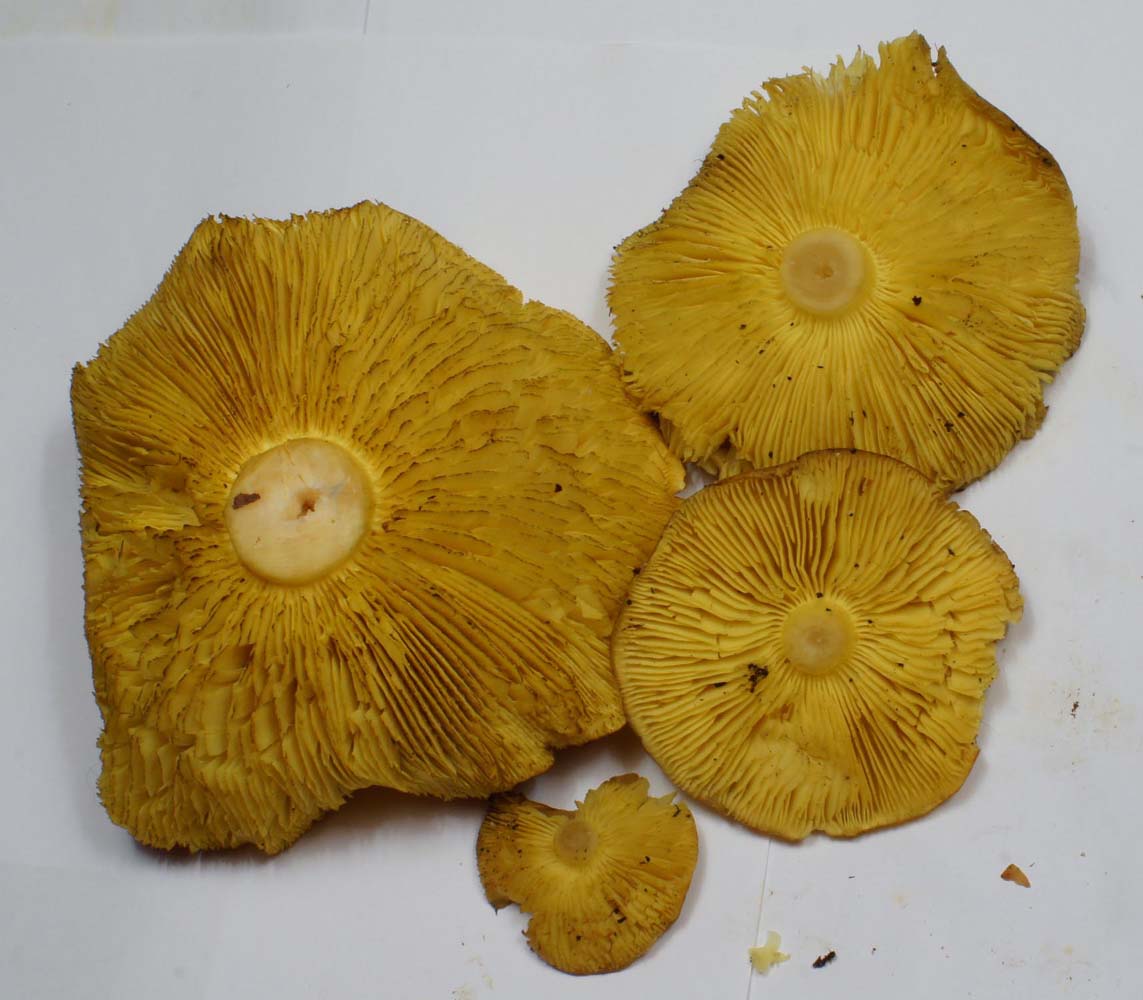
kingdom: Fungi
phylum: Basidiomycota
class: Agaricomycetes
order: Agaricales
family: Tricholomataceae
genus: Tricholoma
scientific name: Tricholoma frondosae
